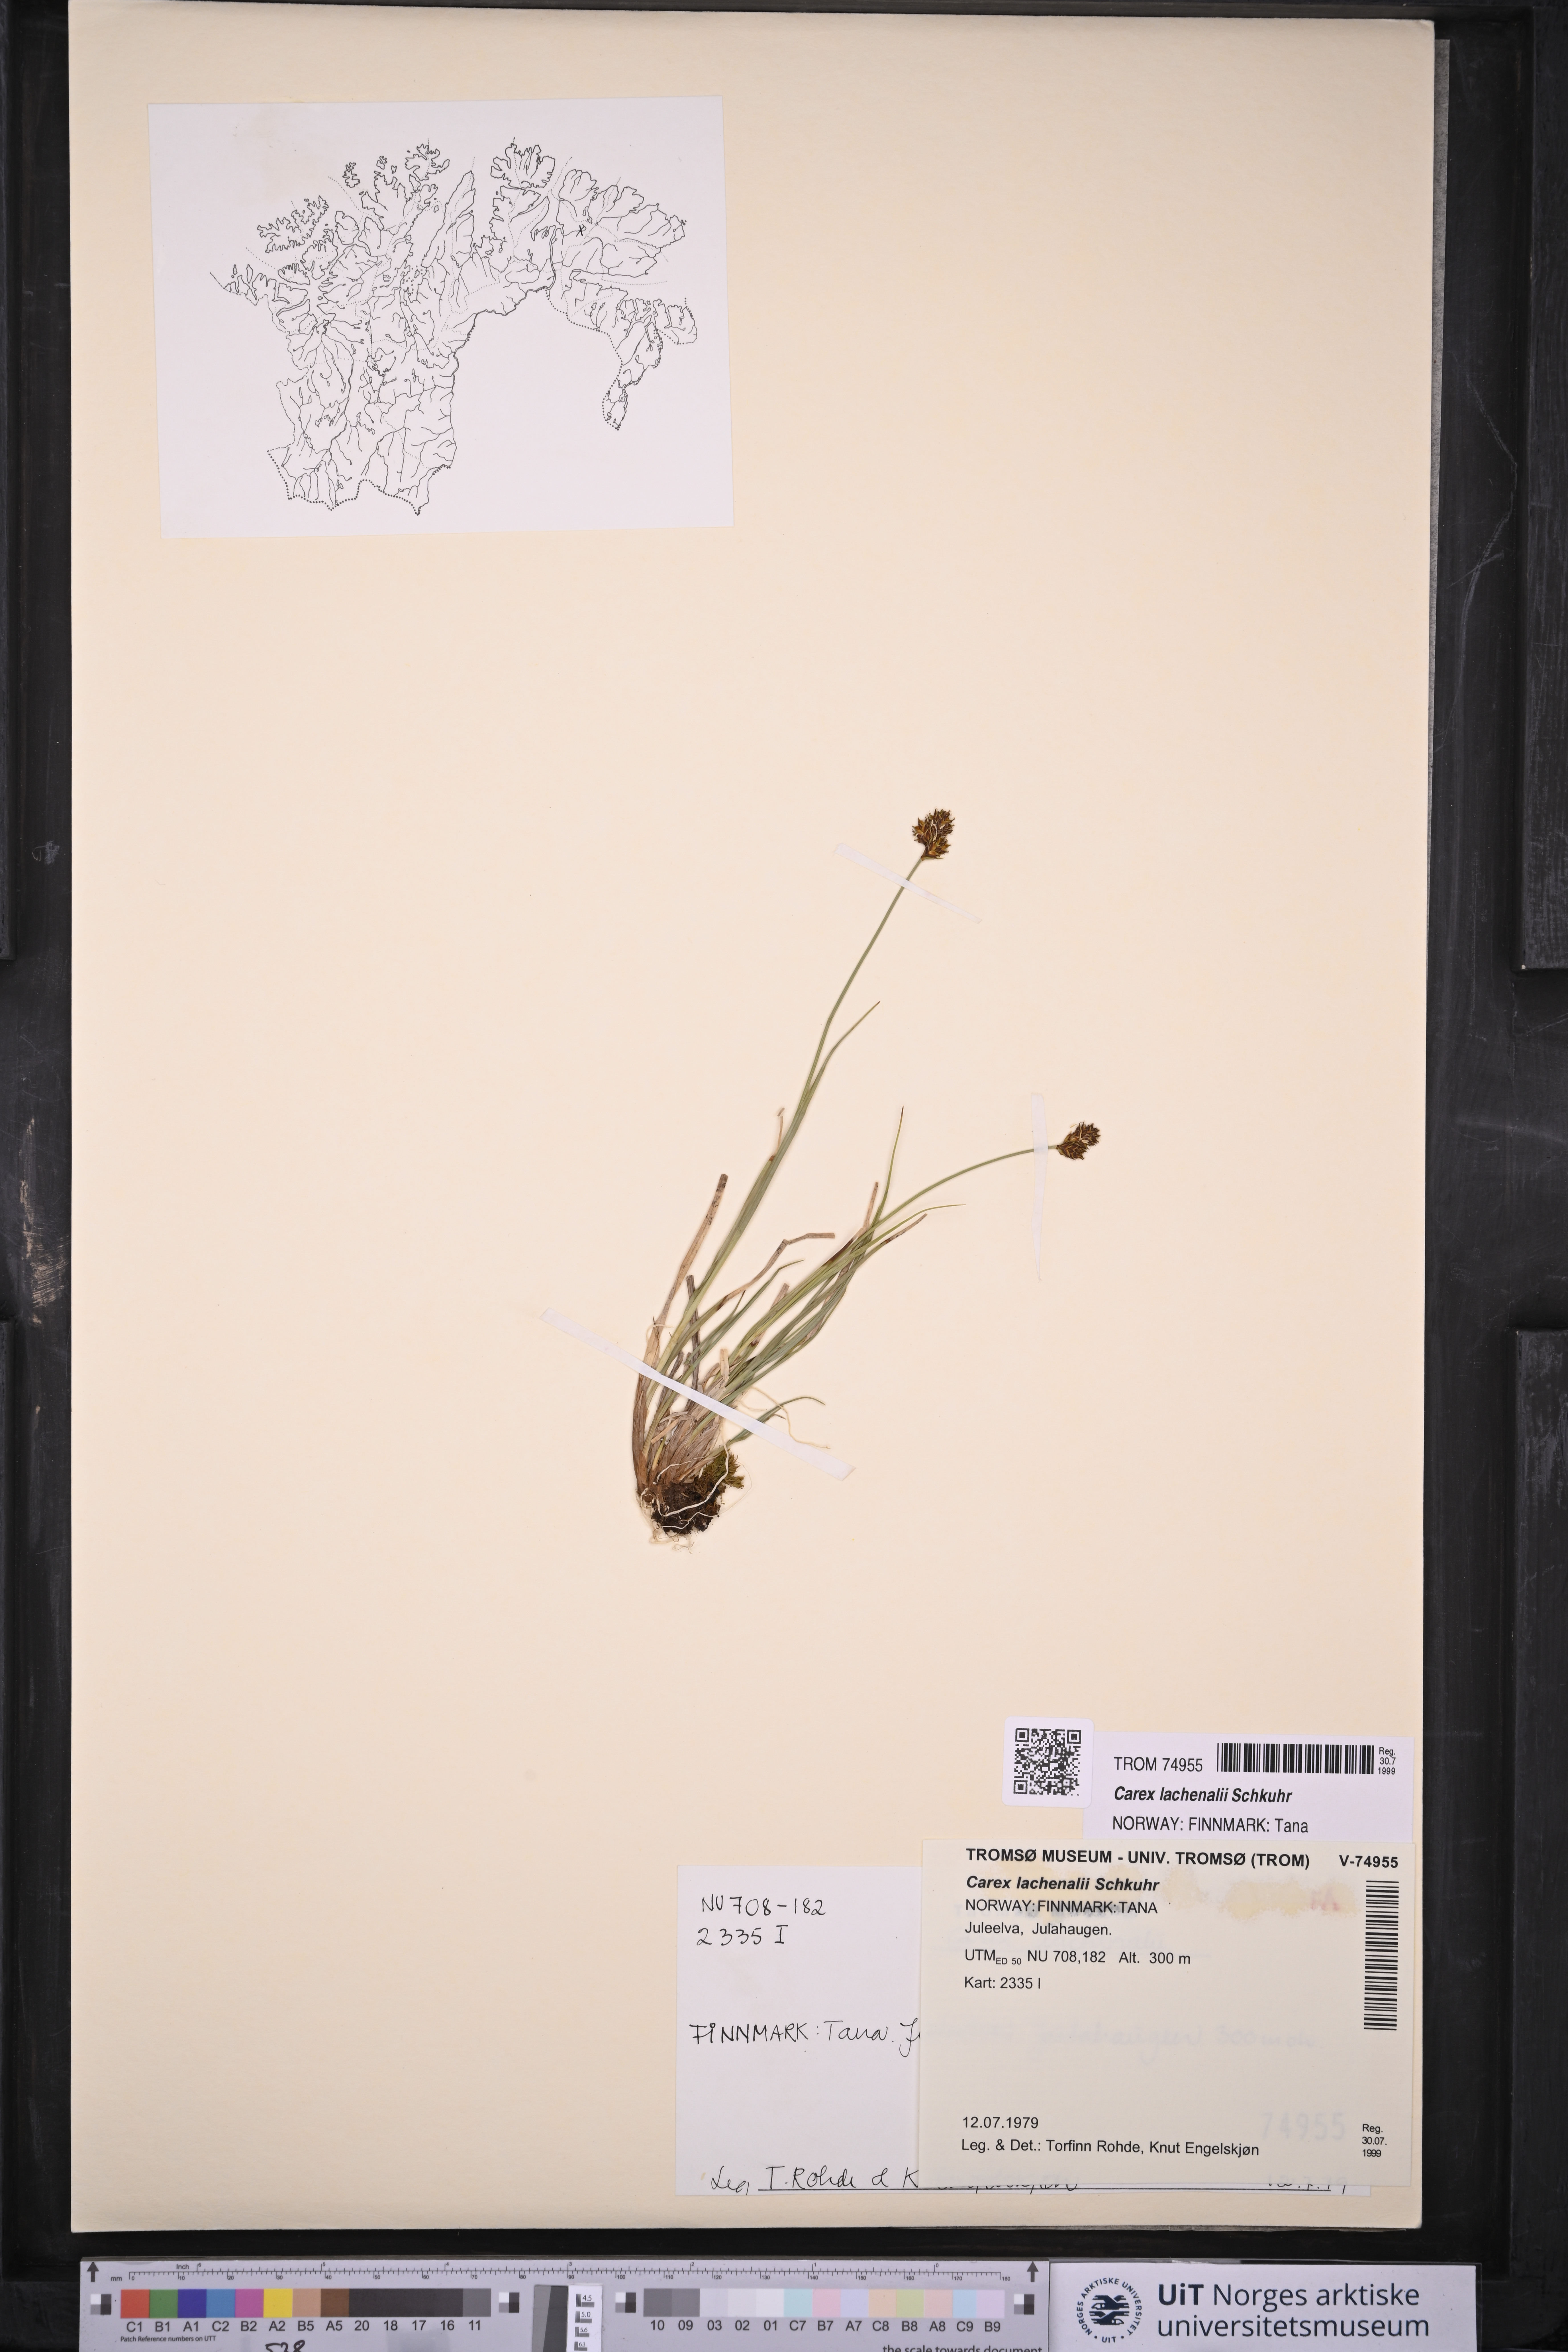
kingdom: Plantae
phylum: Tracheophyta
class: Liliopsida
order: Poales
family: Cyperaceae
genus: Carex
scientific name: Carex lachenalii
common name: Hare's-foot sedge
